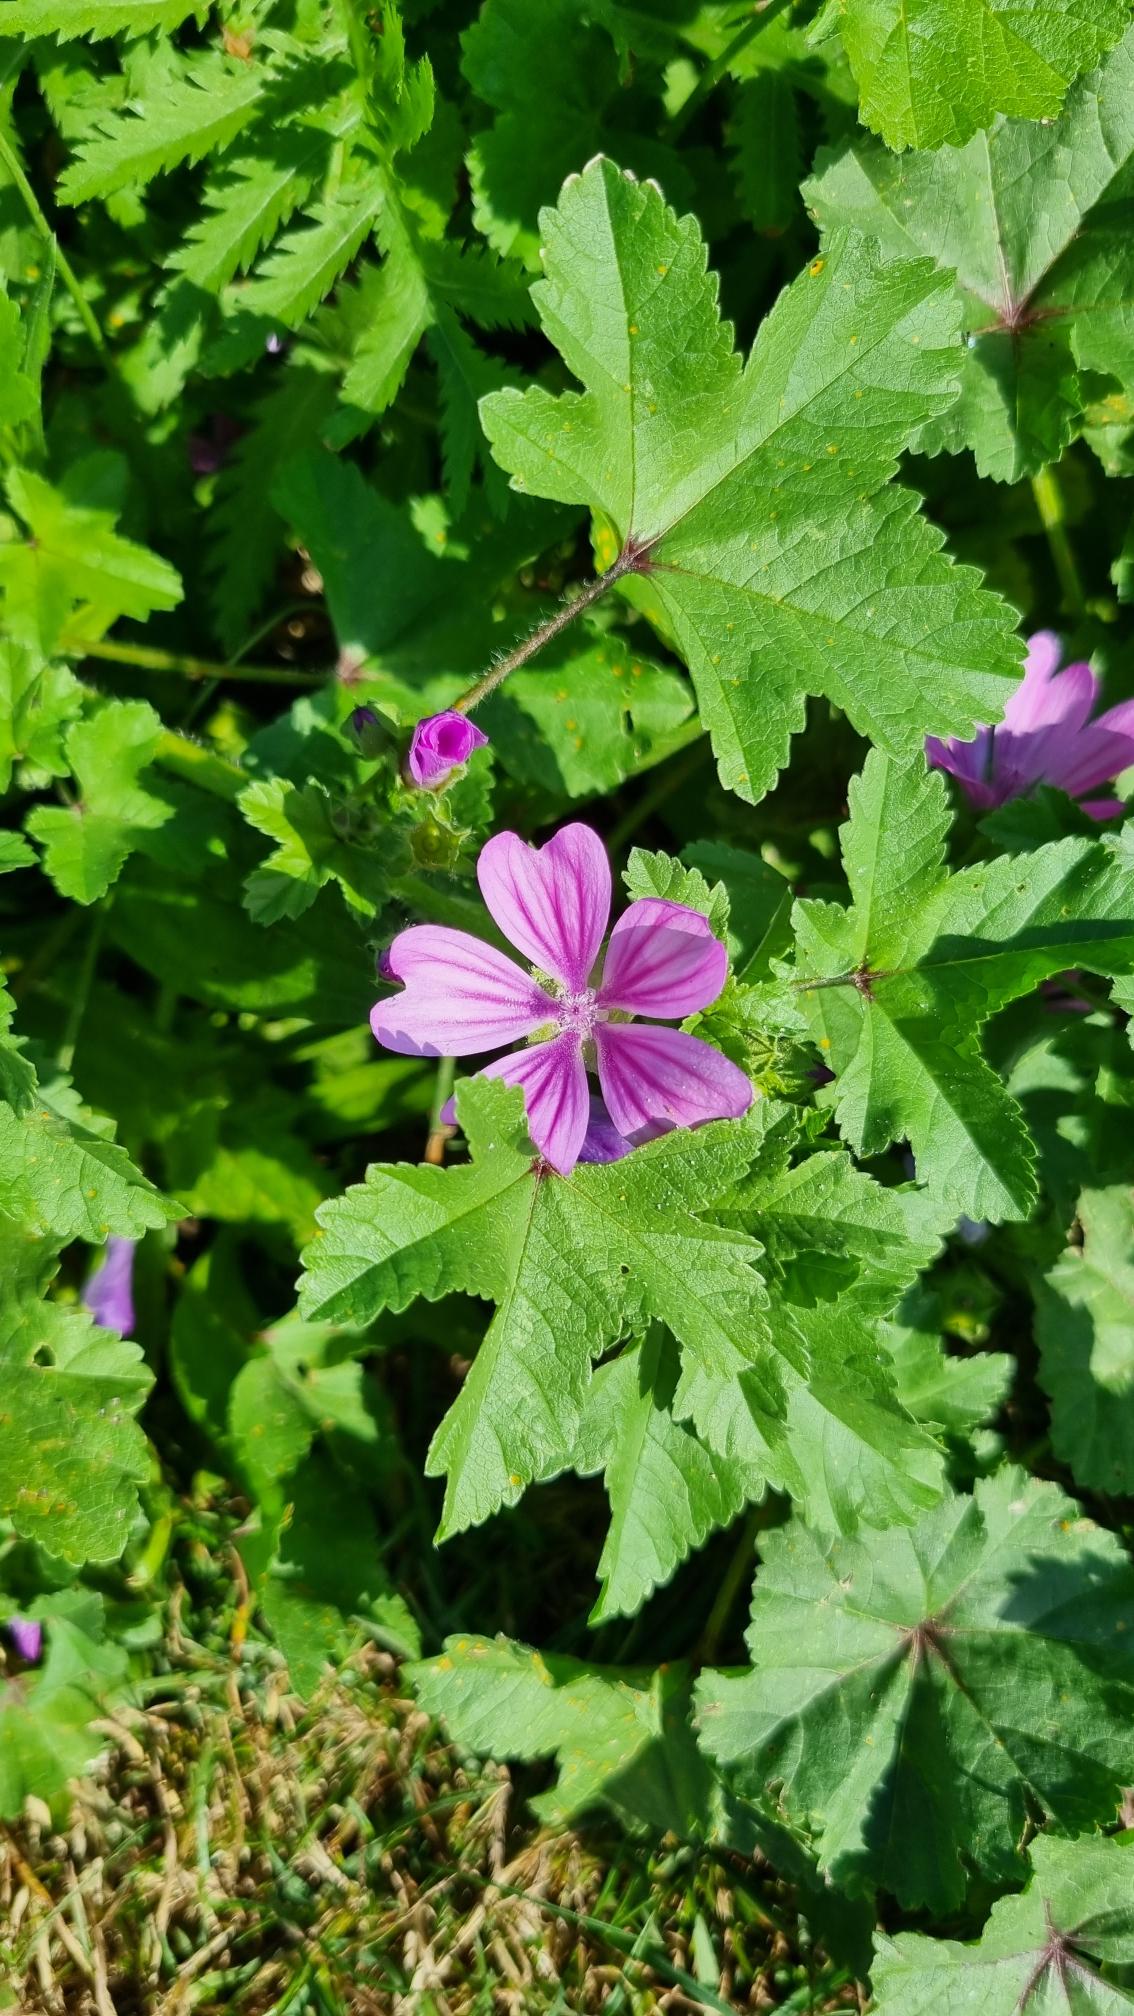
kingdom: Plantae
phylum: Tracheophyta
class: Magnoliopsida
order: Malvales
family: Malvaceae
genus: Malva
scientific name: Malva sylvestris
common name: Almindelig katost
